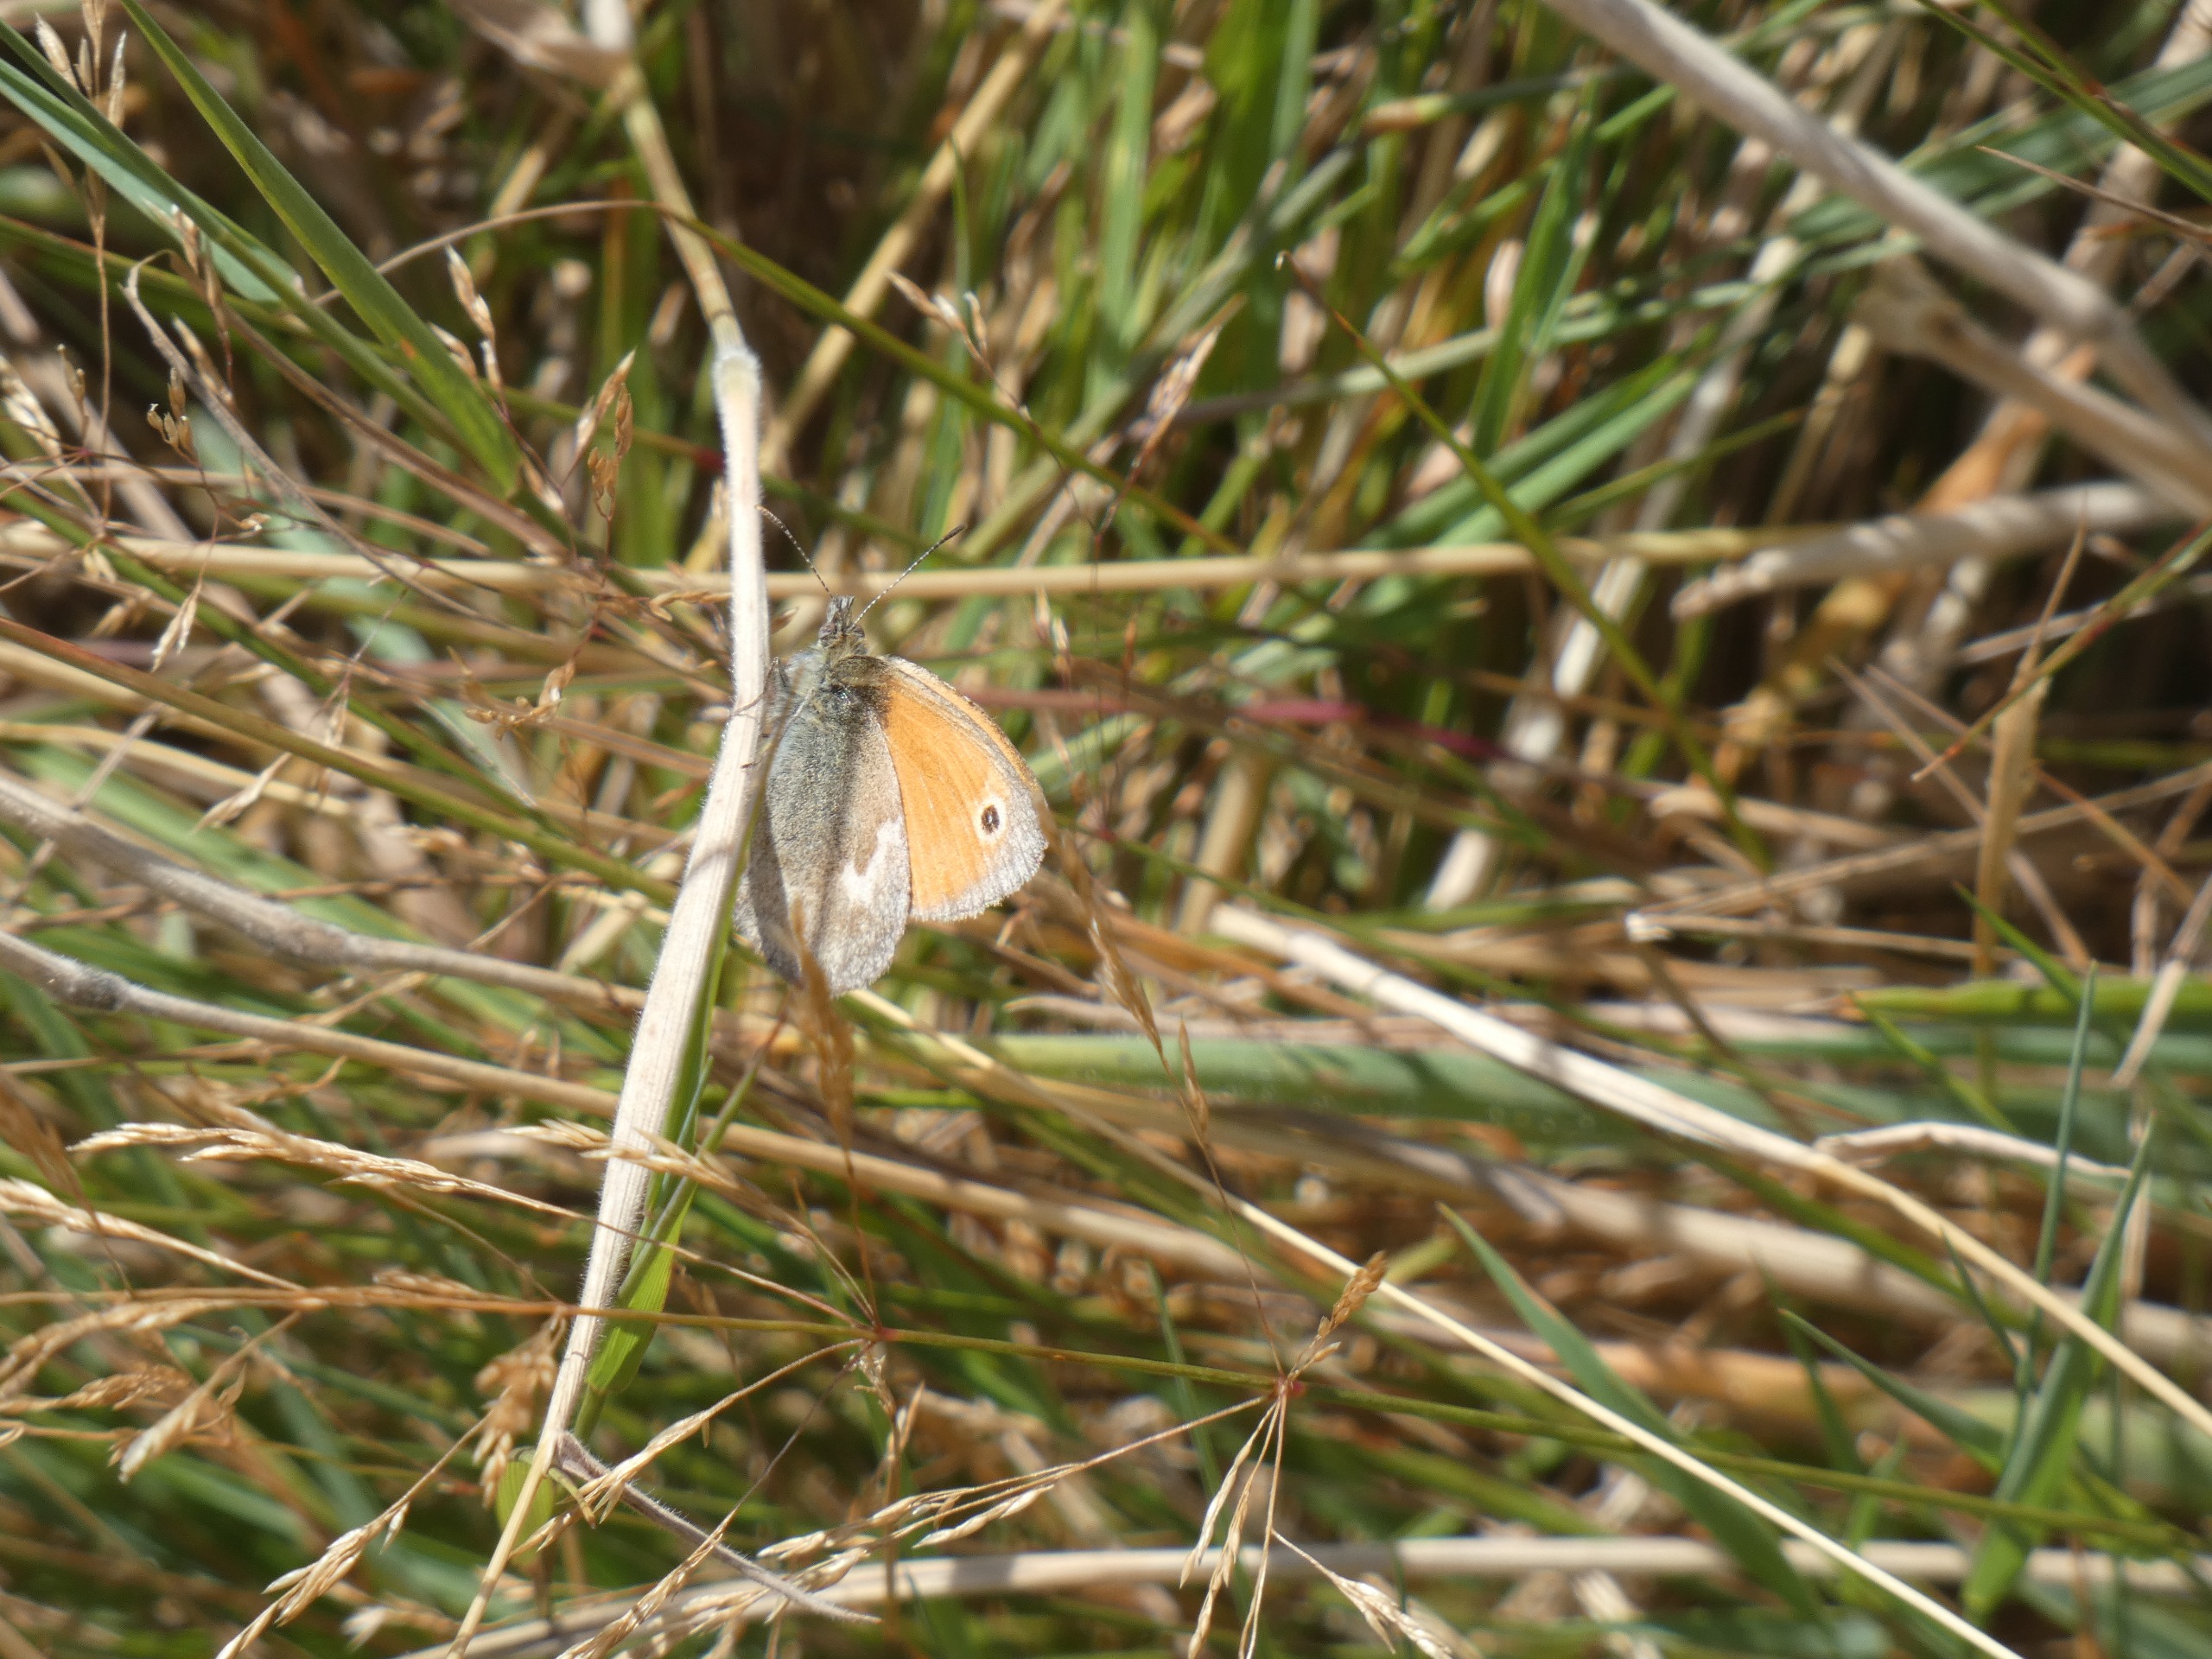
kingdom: Animalia
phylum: Arthropoda
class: Insecta
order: Lepidoptera
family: Nymphalidae
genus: Coenonympha
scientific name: Coenonympha pamphilus
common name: Okkergul randøje
